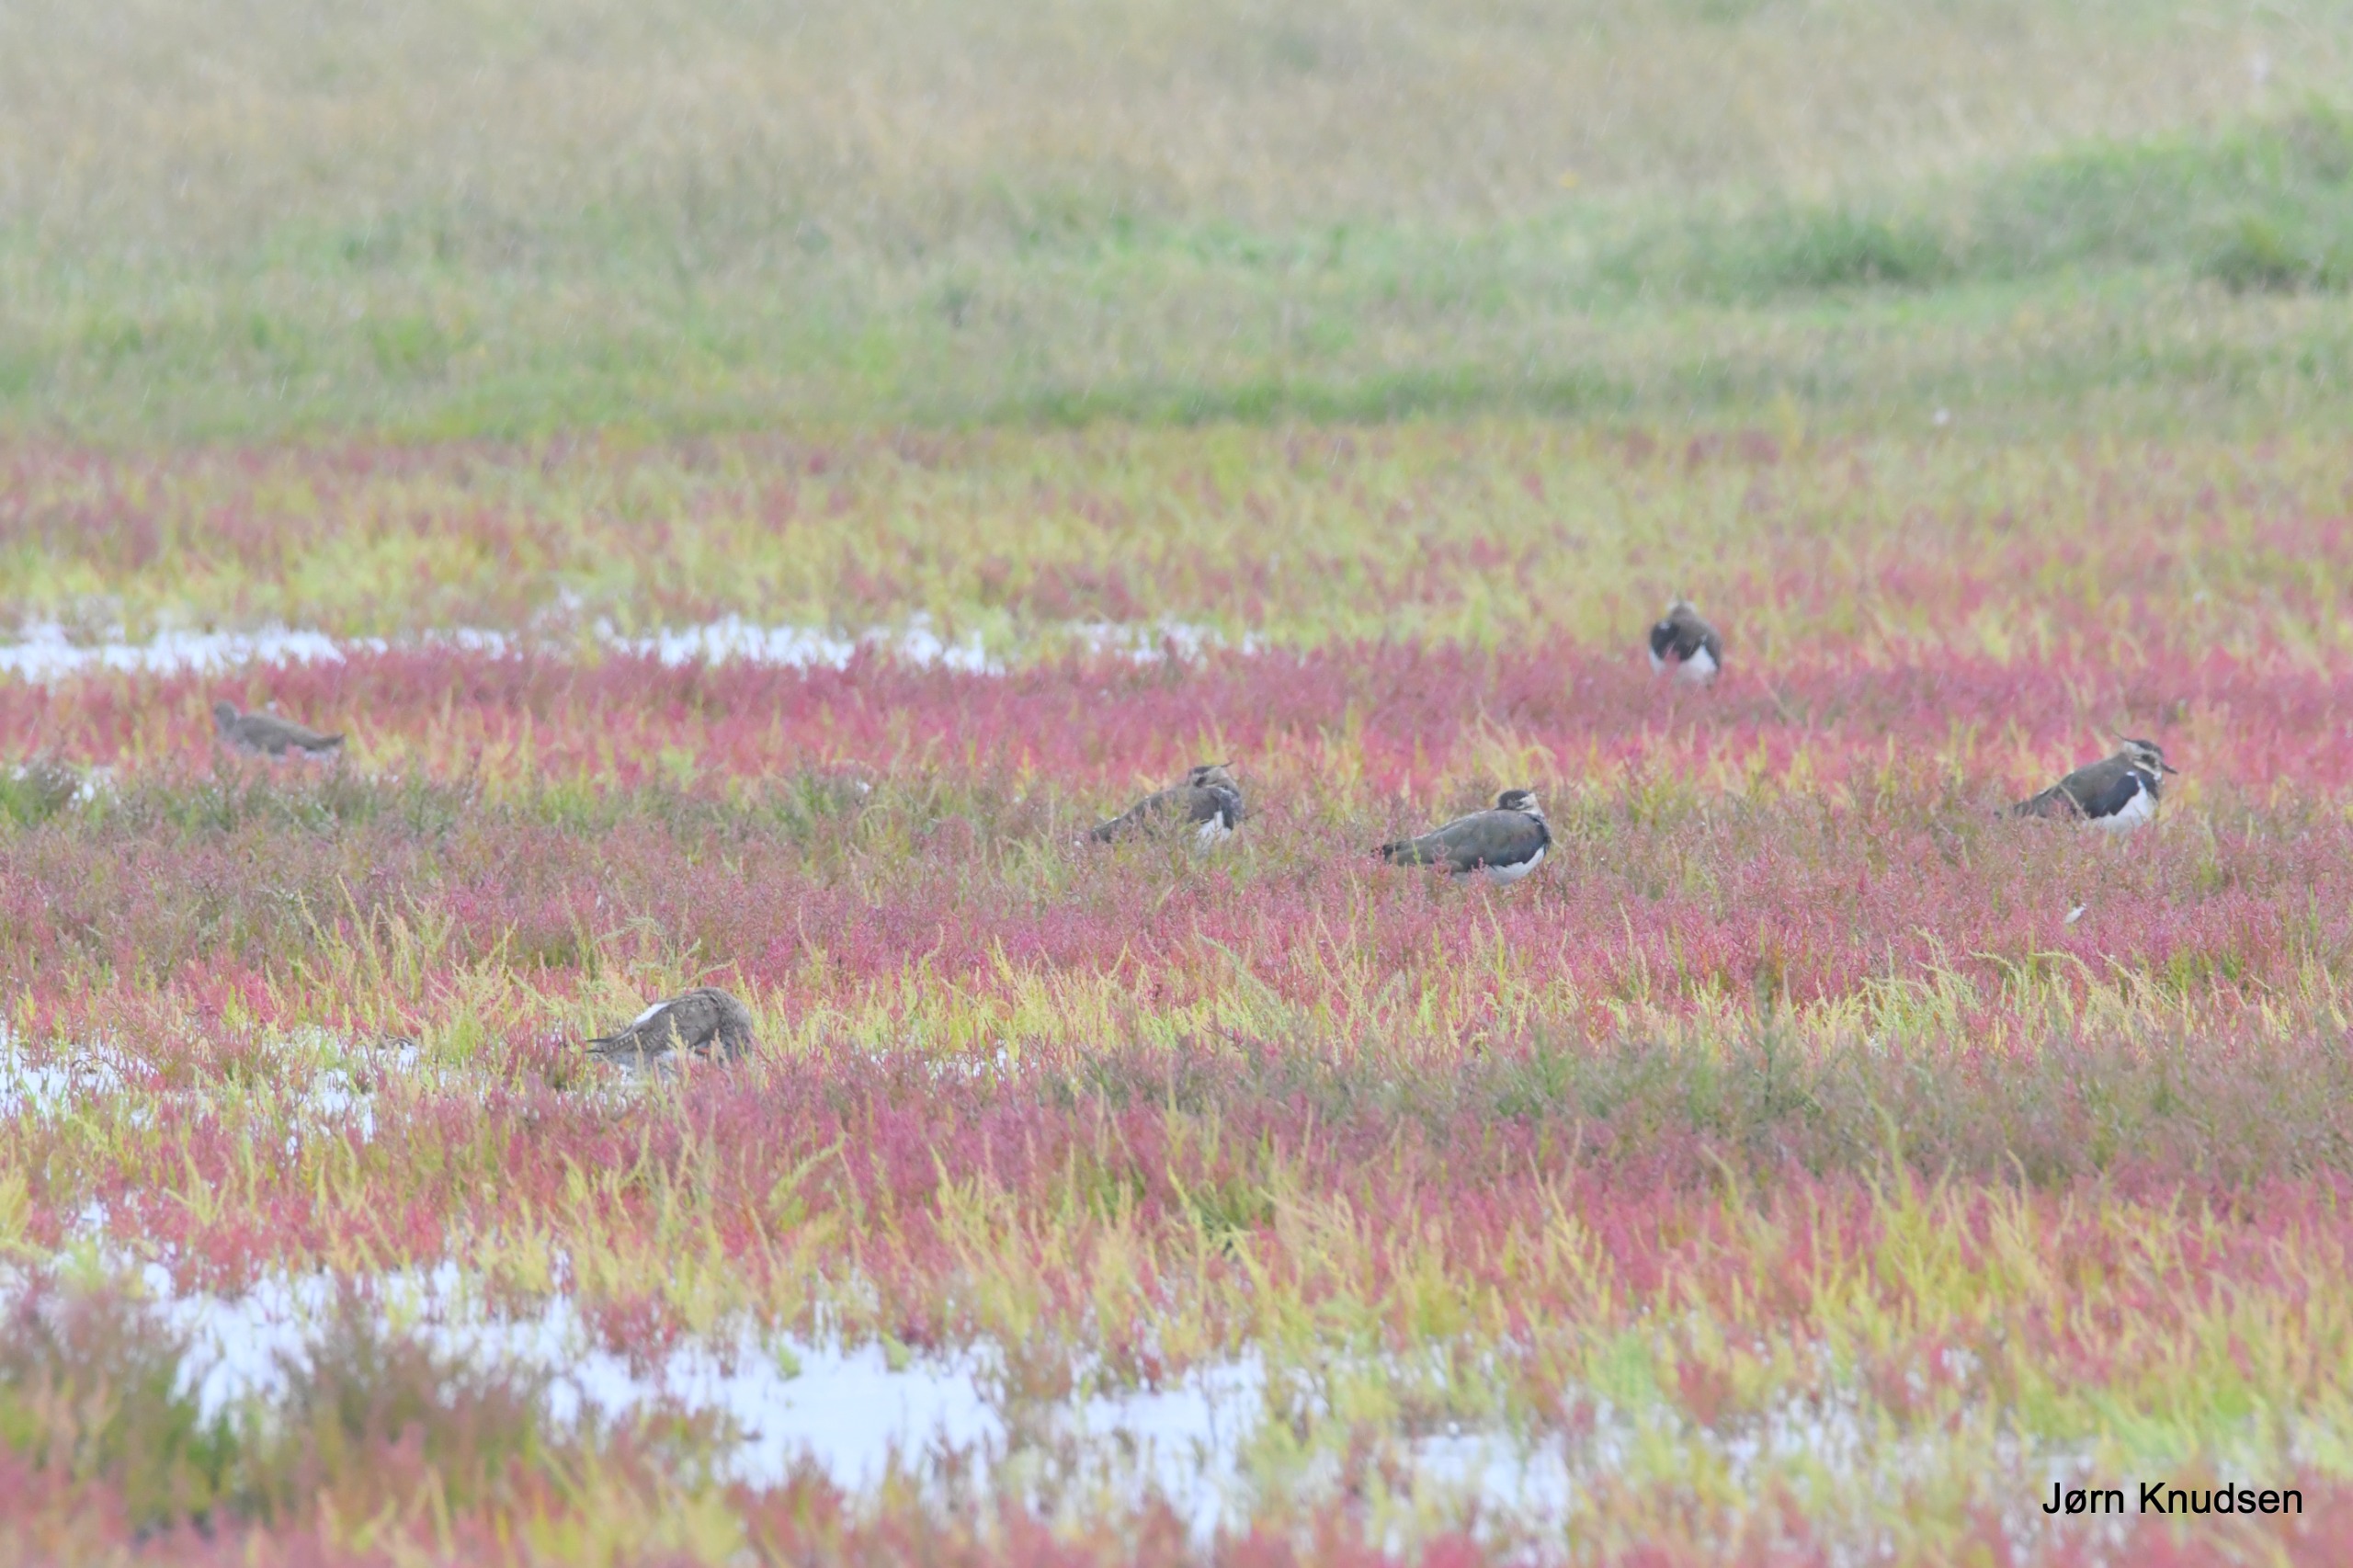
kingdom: Animalia
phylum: Chordata
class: Aves
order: Charadriiformes
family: Charadriidae
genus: Vanellus
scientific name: Vanellus vanellus
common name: Vibe
